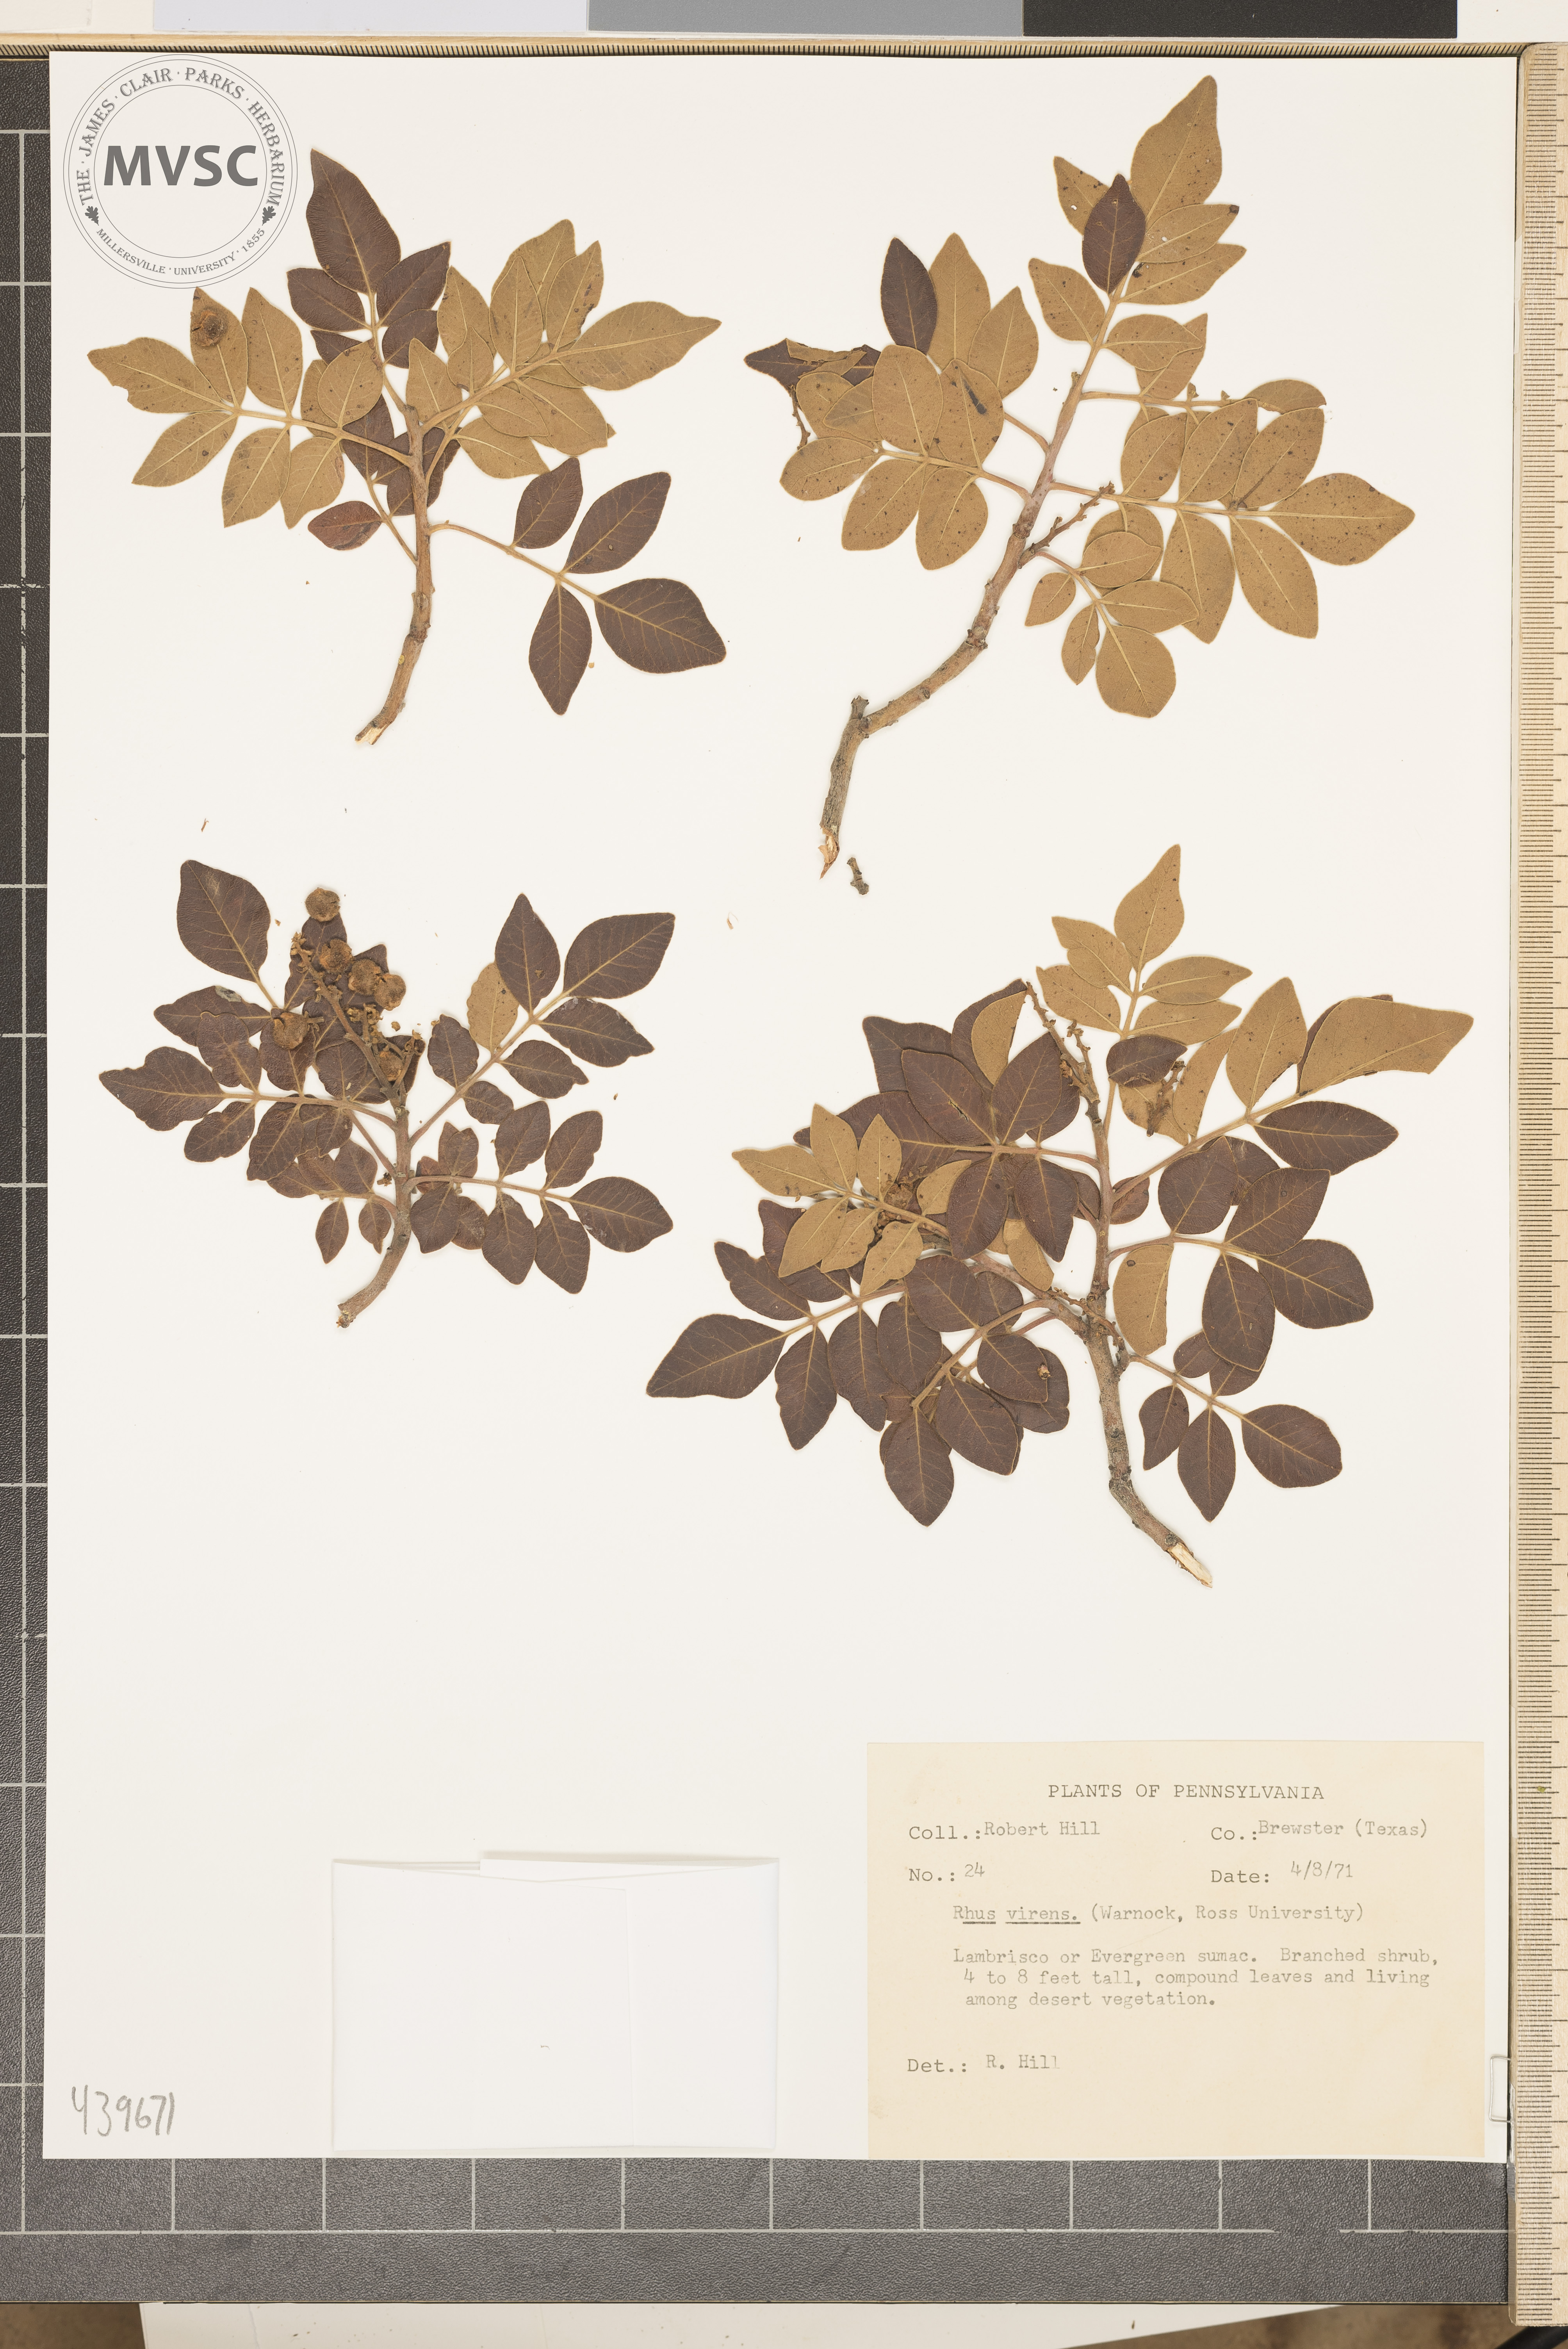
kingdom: Plantae
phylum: Tracheophyta
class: Magnoliopsida
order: Sapindales
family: Anacardiaceae
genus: Rhus
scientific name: Rhus virens
